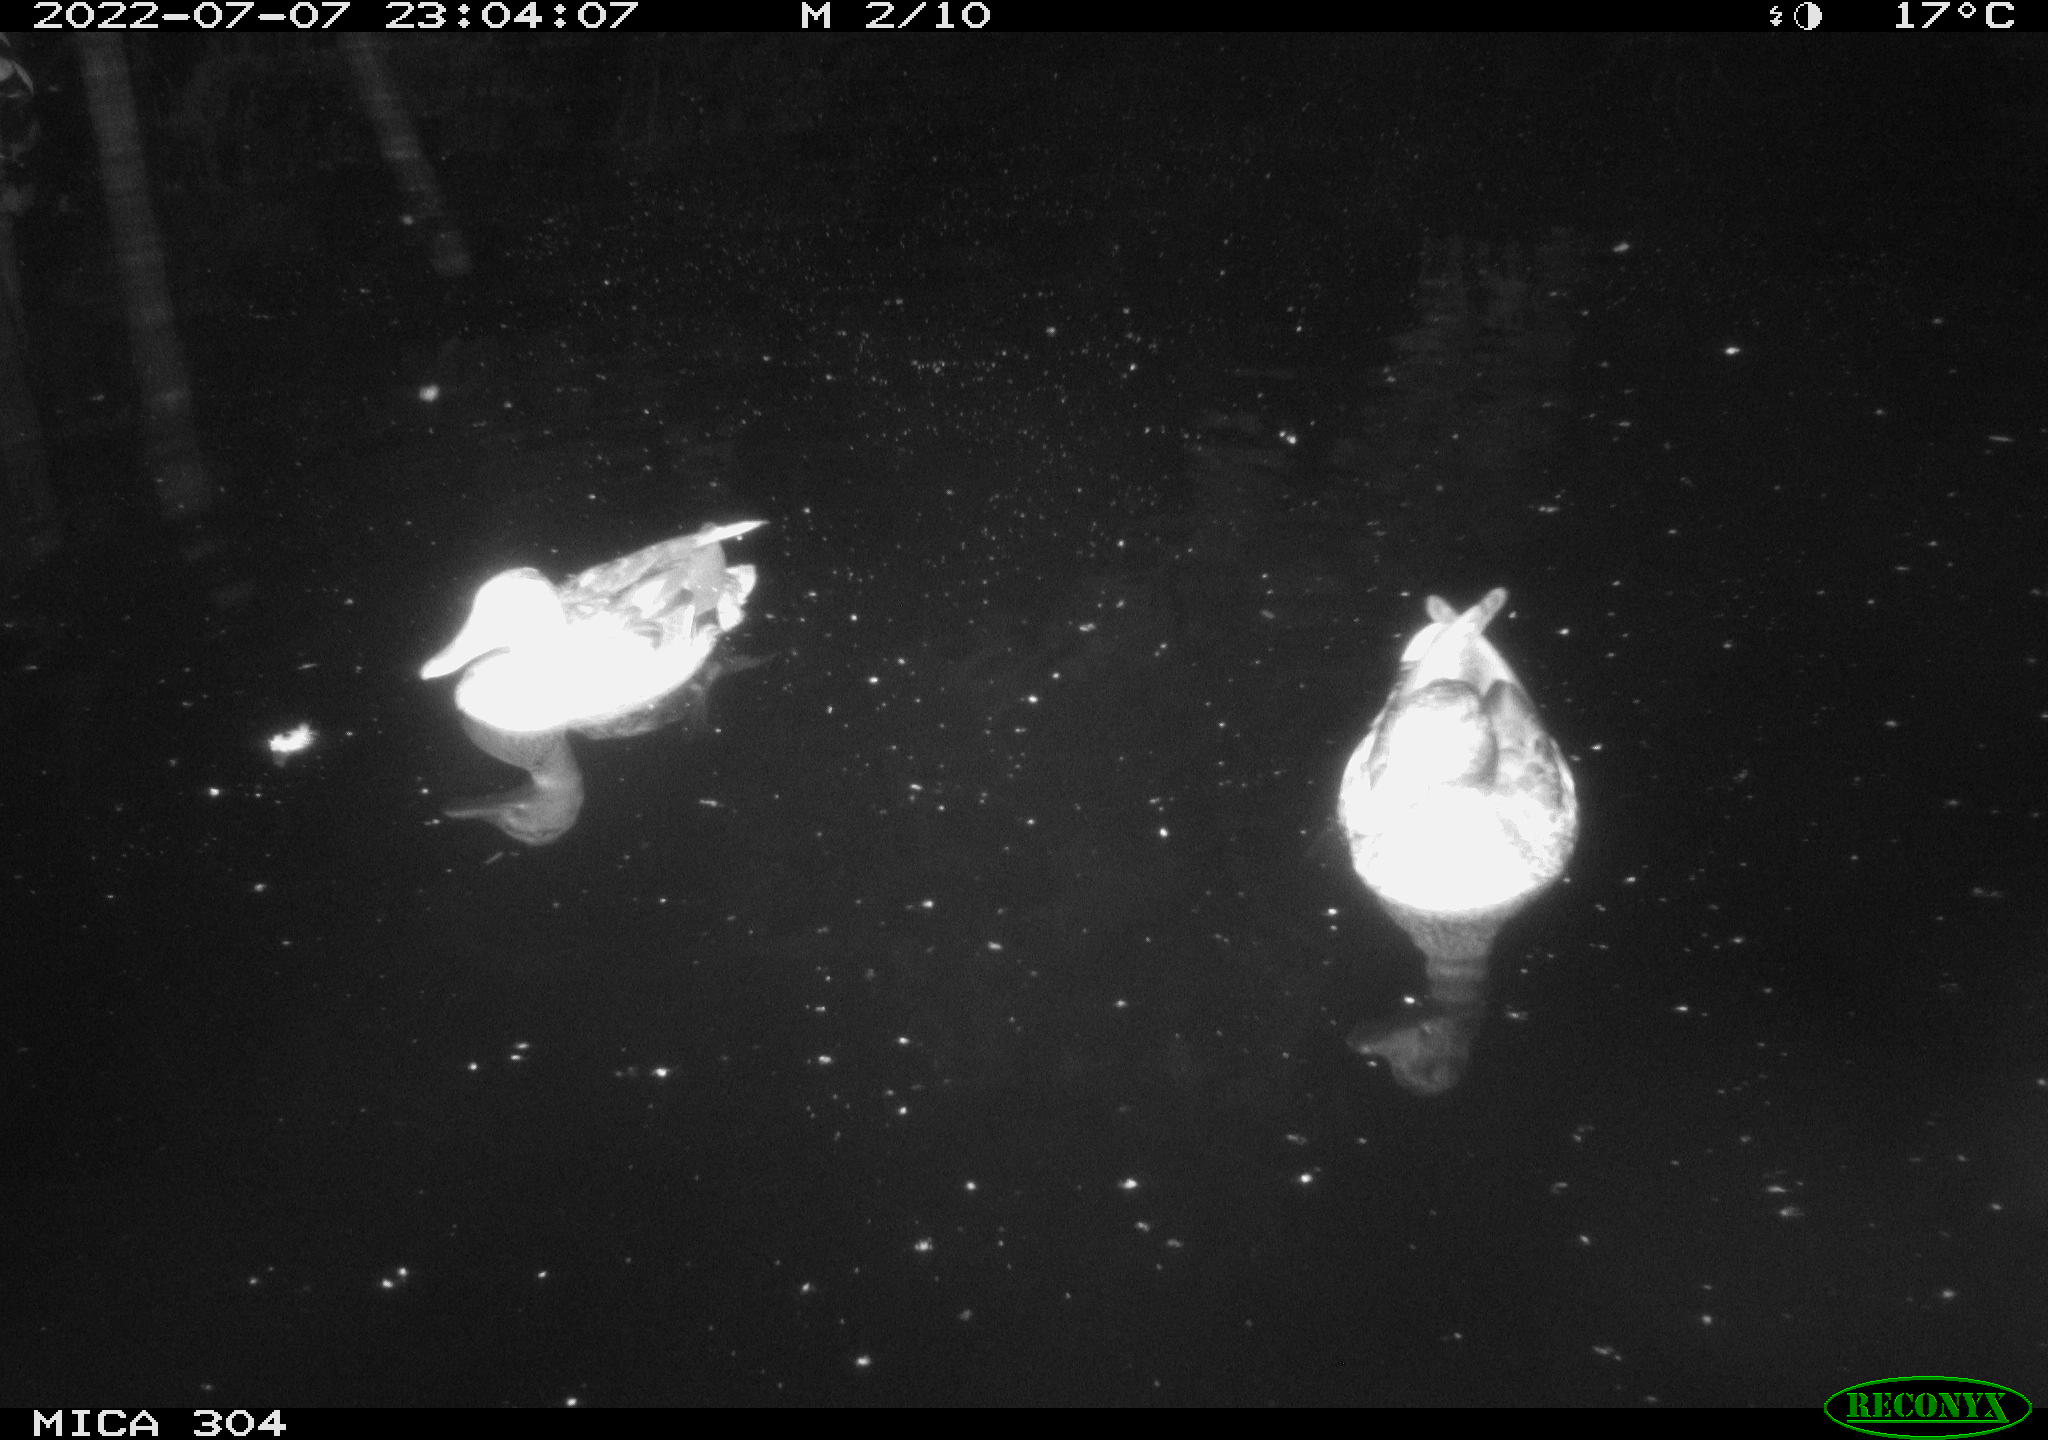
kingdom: Animalia
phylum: Chordata
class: Aves
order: Anseriformes
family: Anatidae
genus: Mareca
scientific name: Mareca strepera
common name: Gadwall
